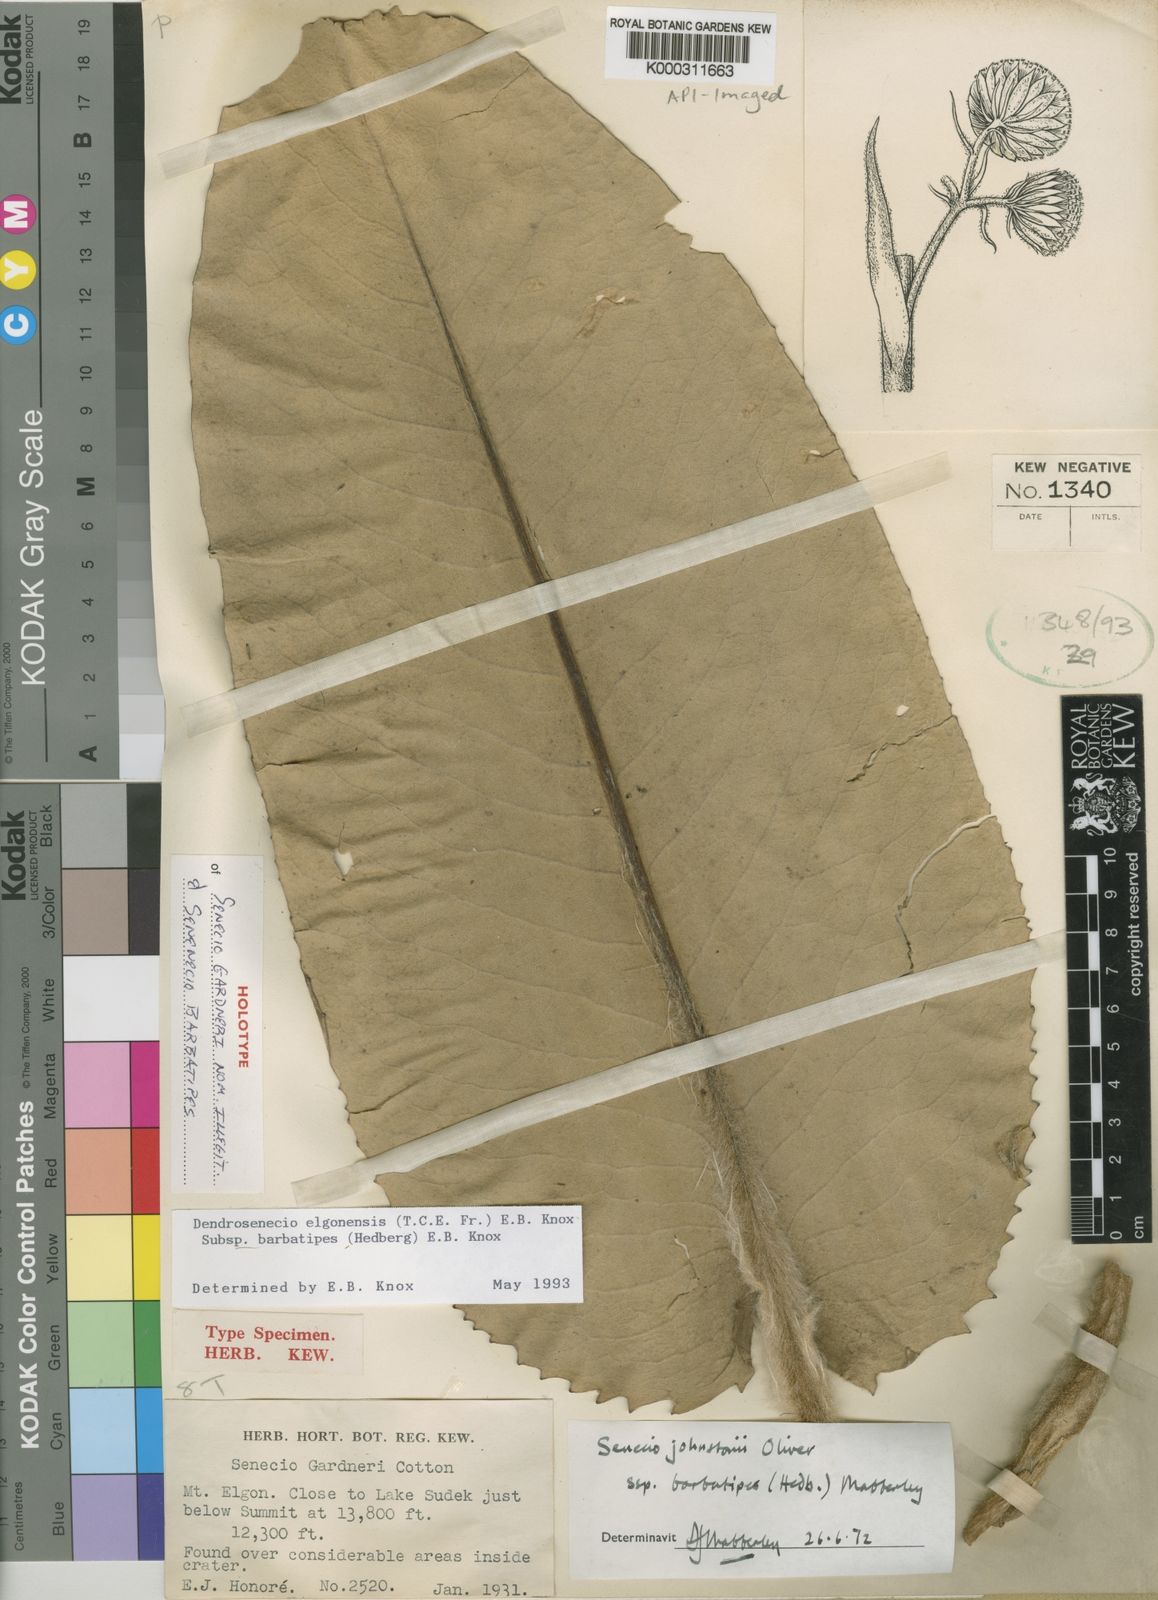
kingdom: Plantae
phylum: Tracheophyta
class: Magnoliopsida
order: Asterales
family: Asteraceae
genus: Dendrosenecio
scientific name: Dendrosenecio elgonensis
